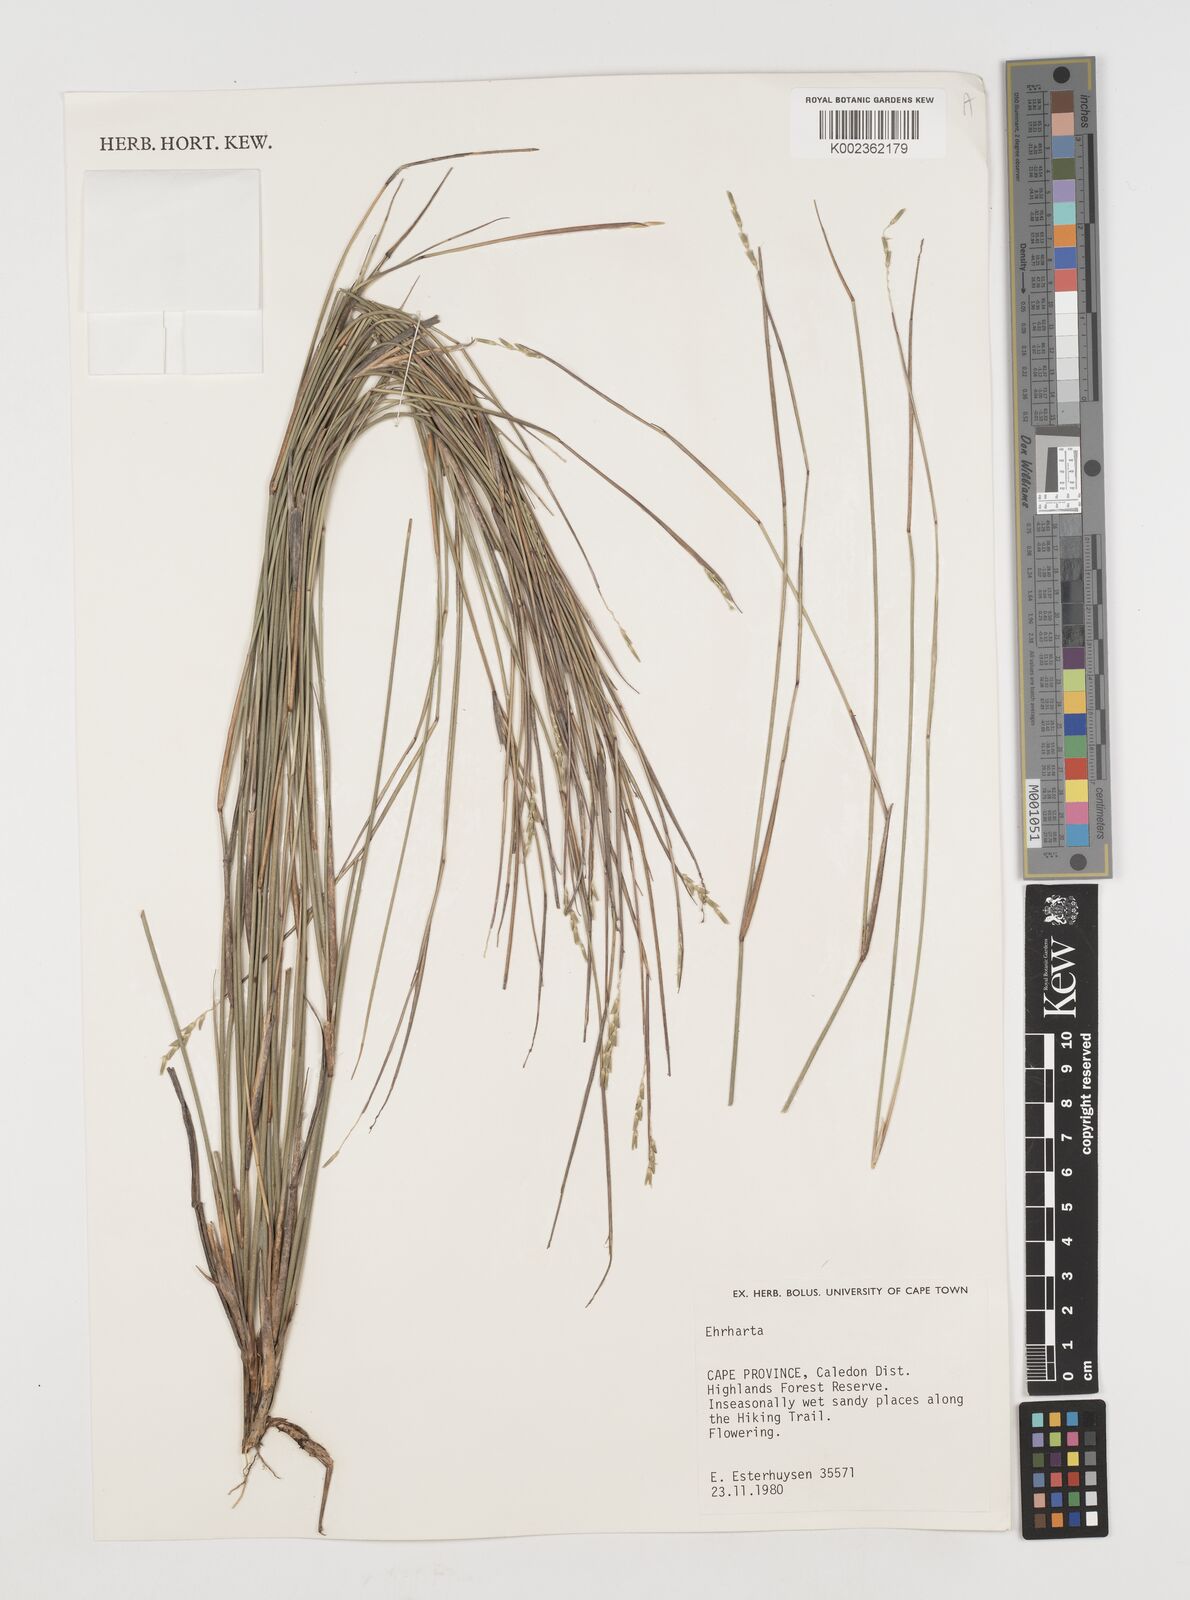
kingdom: Plantae
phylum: Tracheophyta
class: Liliopsida
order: Poales
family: Poaceae
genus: Ehrharta
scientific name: Ehrharta
